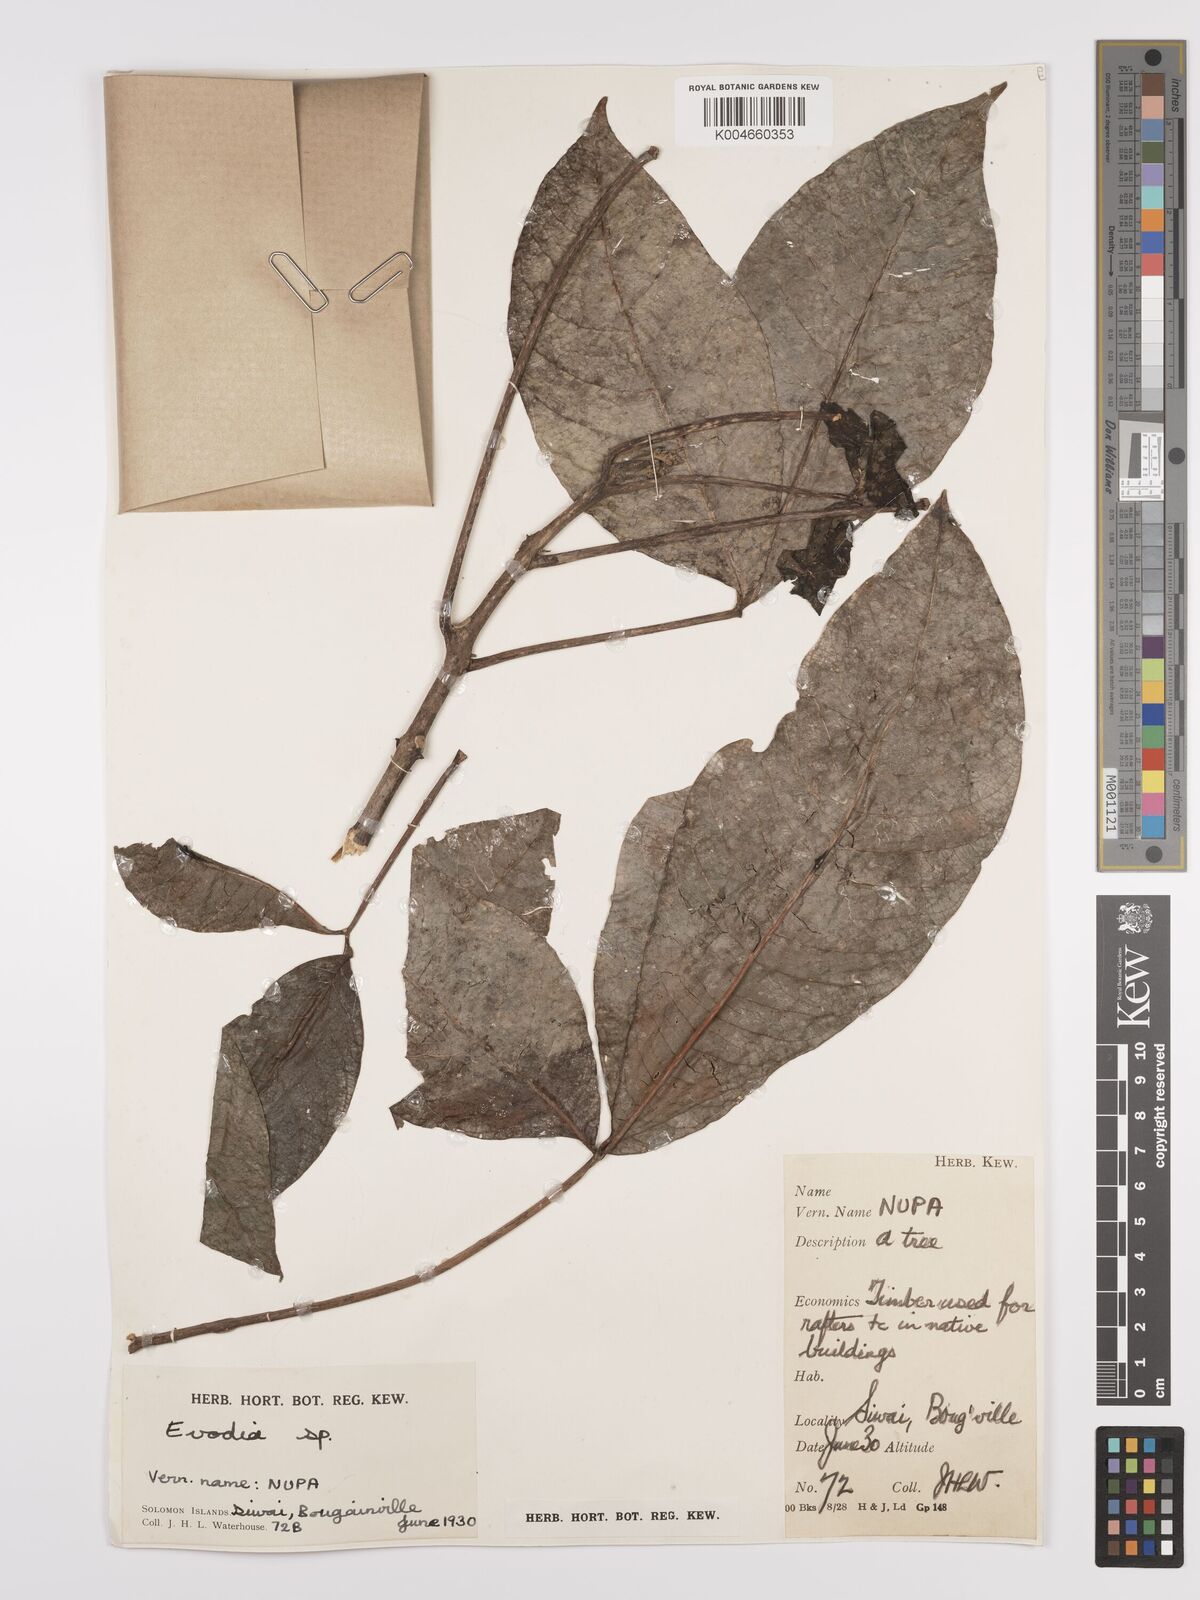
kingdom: Plantae
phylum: Tracheophyta
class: Magnoliopsida
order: Sapindales
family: Rutaceae
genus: Euodia
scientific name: Euodia
